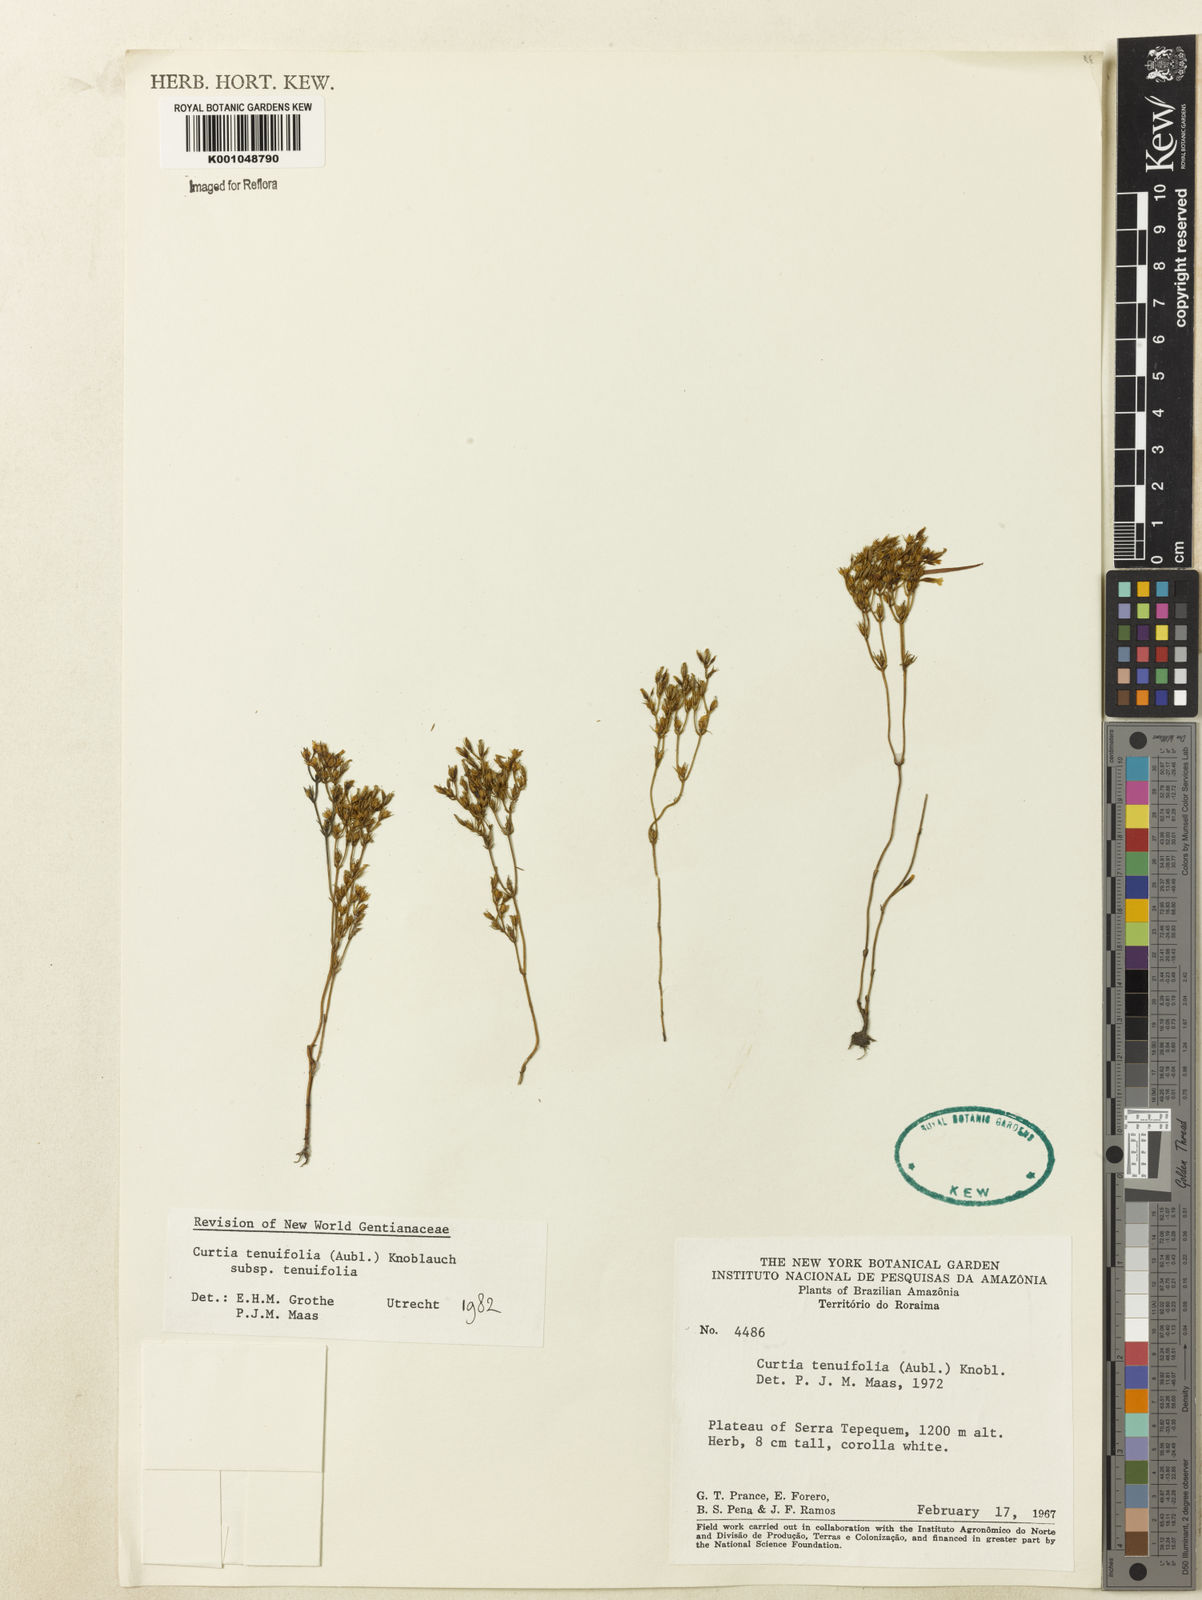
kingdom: Plantae
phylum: Tracheophyta
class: Magnoliopsida
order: Gentianales
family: Gentianaceae
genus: Curtia
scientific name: Curtia tenuifolia
